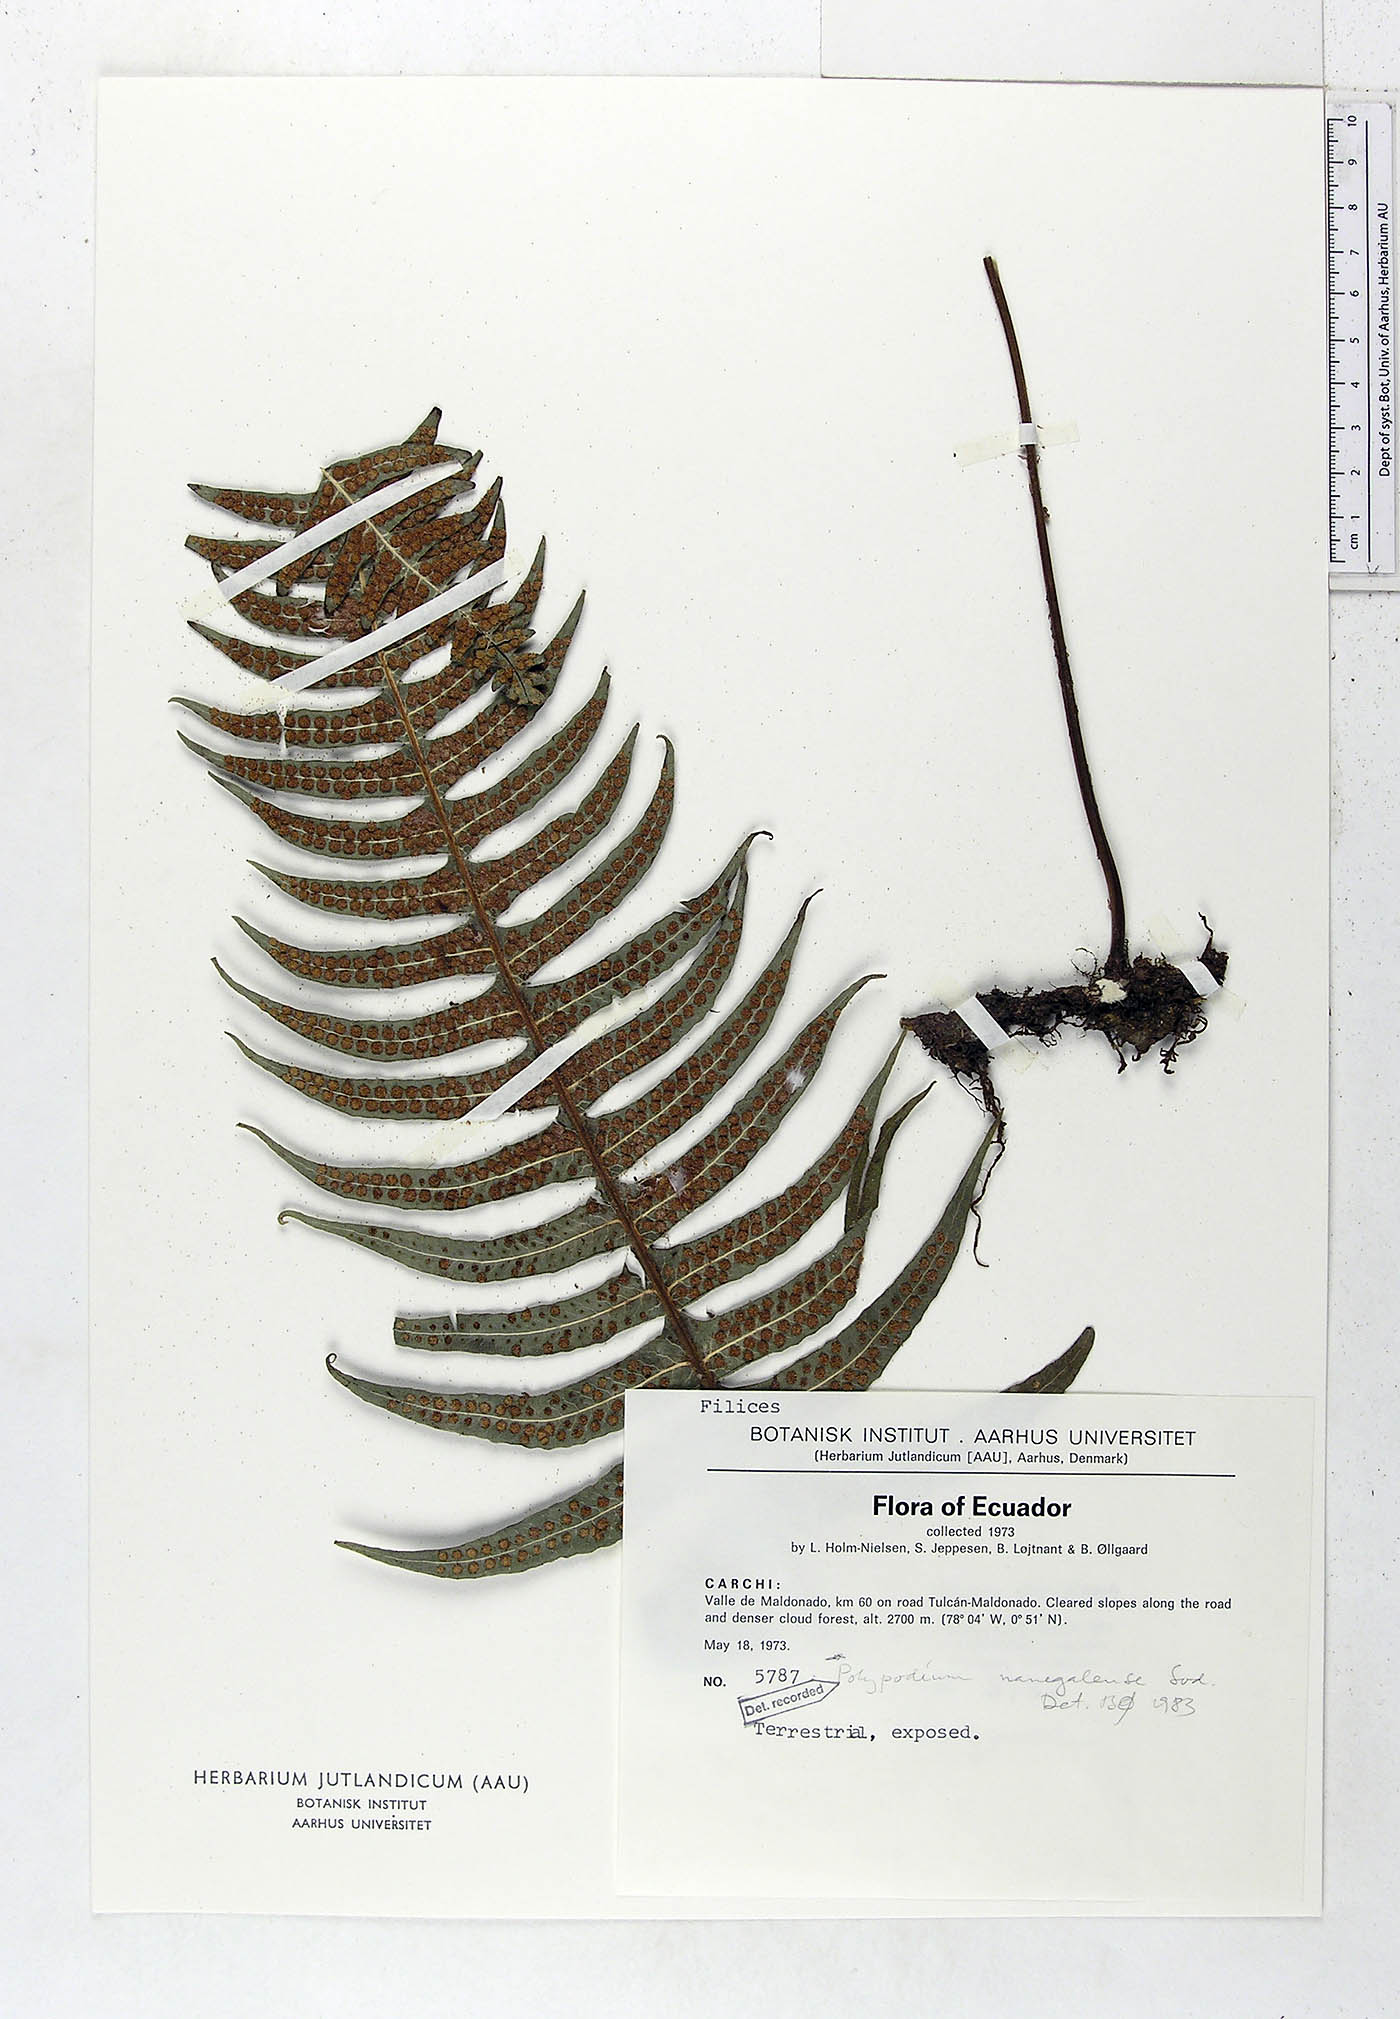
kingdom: Plantae
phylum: Tracheophyta
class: Polypodiopsida
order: Polypodiales
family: Polypodiaceae
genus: Serpocaulon
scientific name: Serpocaulon nanegalense
